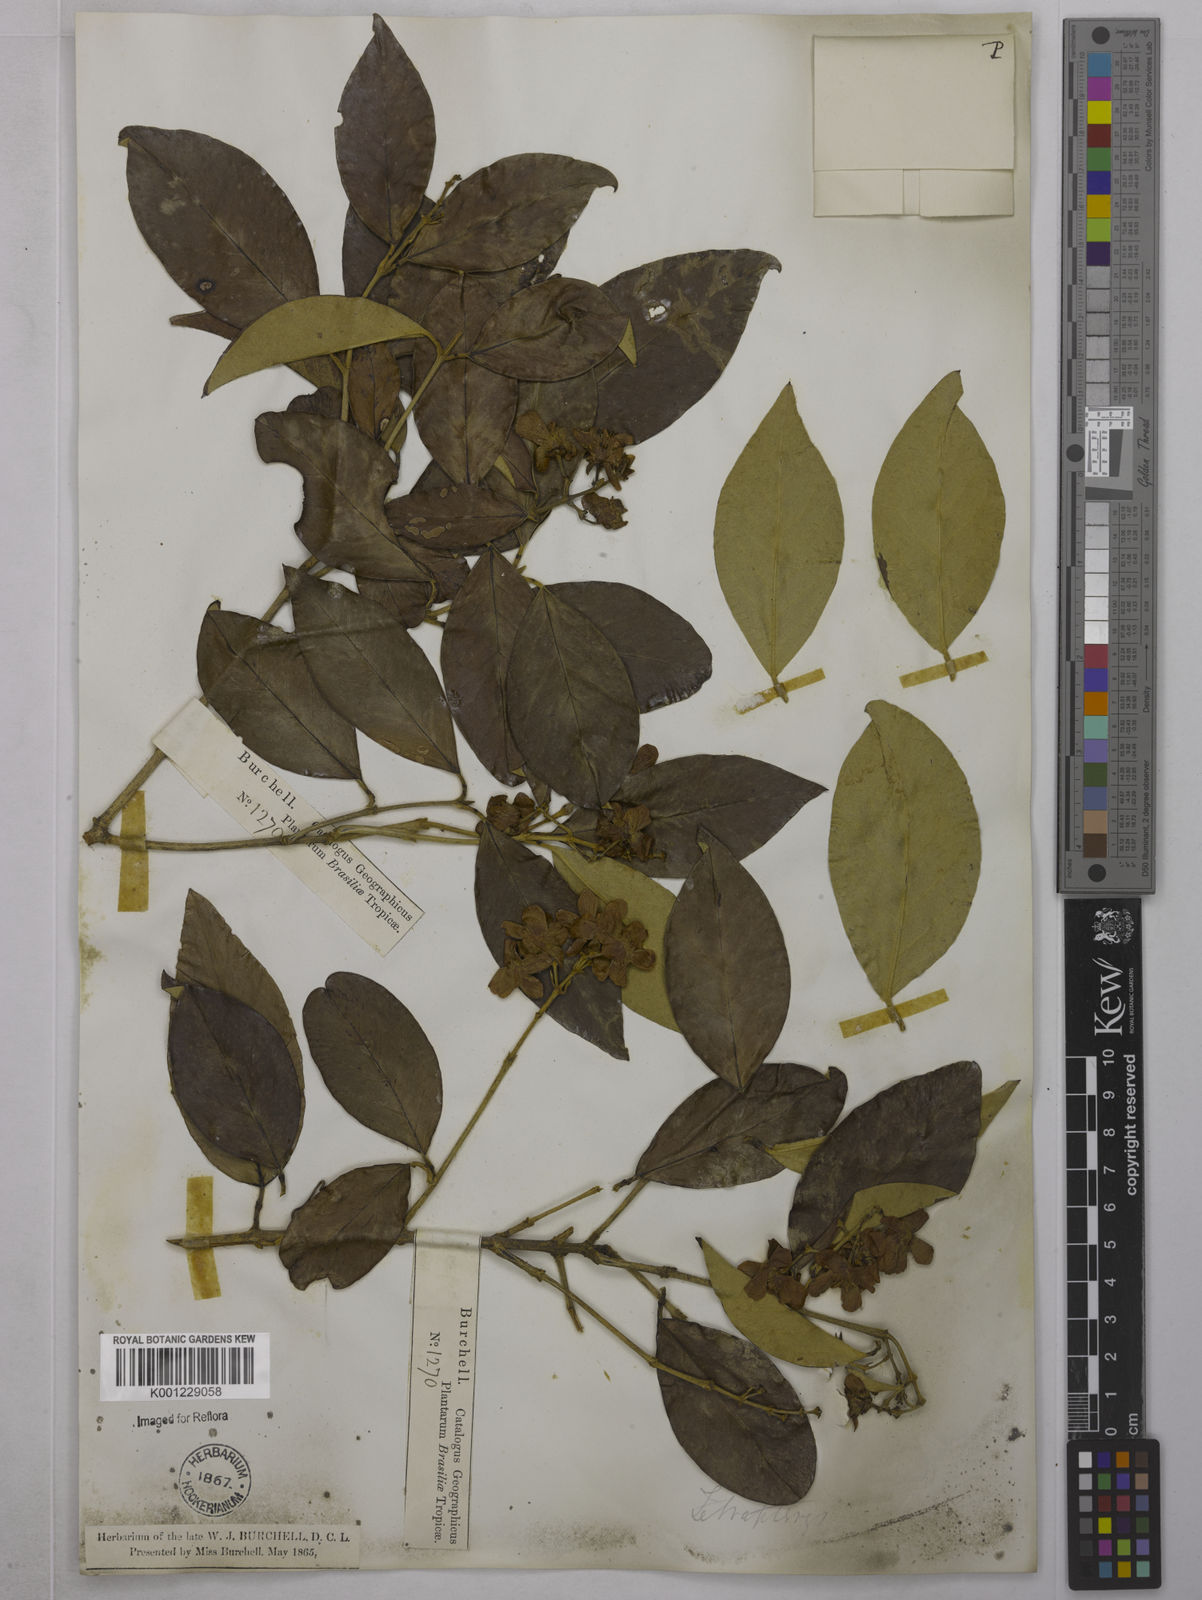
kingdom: Plantae
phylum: Tracheophyta
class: Magnoliopsida
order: Malpighiales
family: Malpighiaceae
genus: Niedenzuella
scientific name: Niedenzuella glabra
